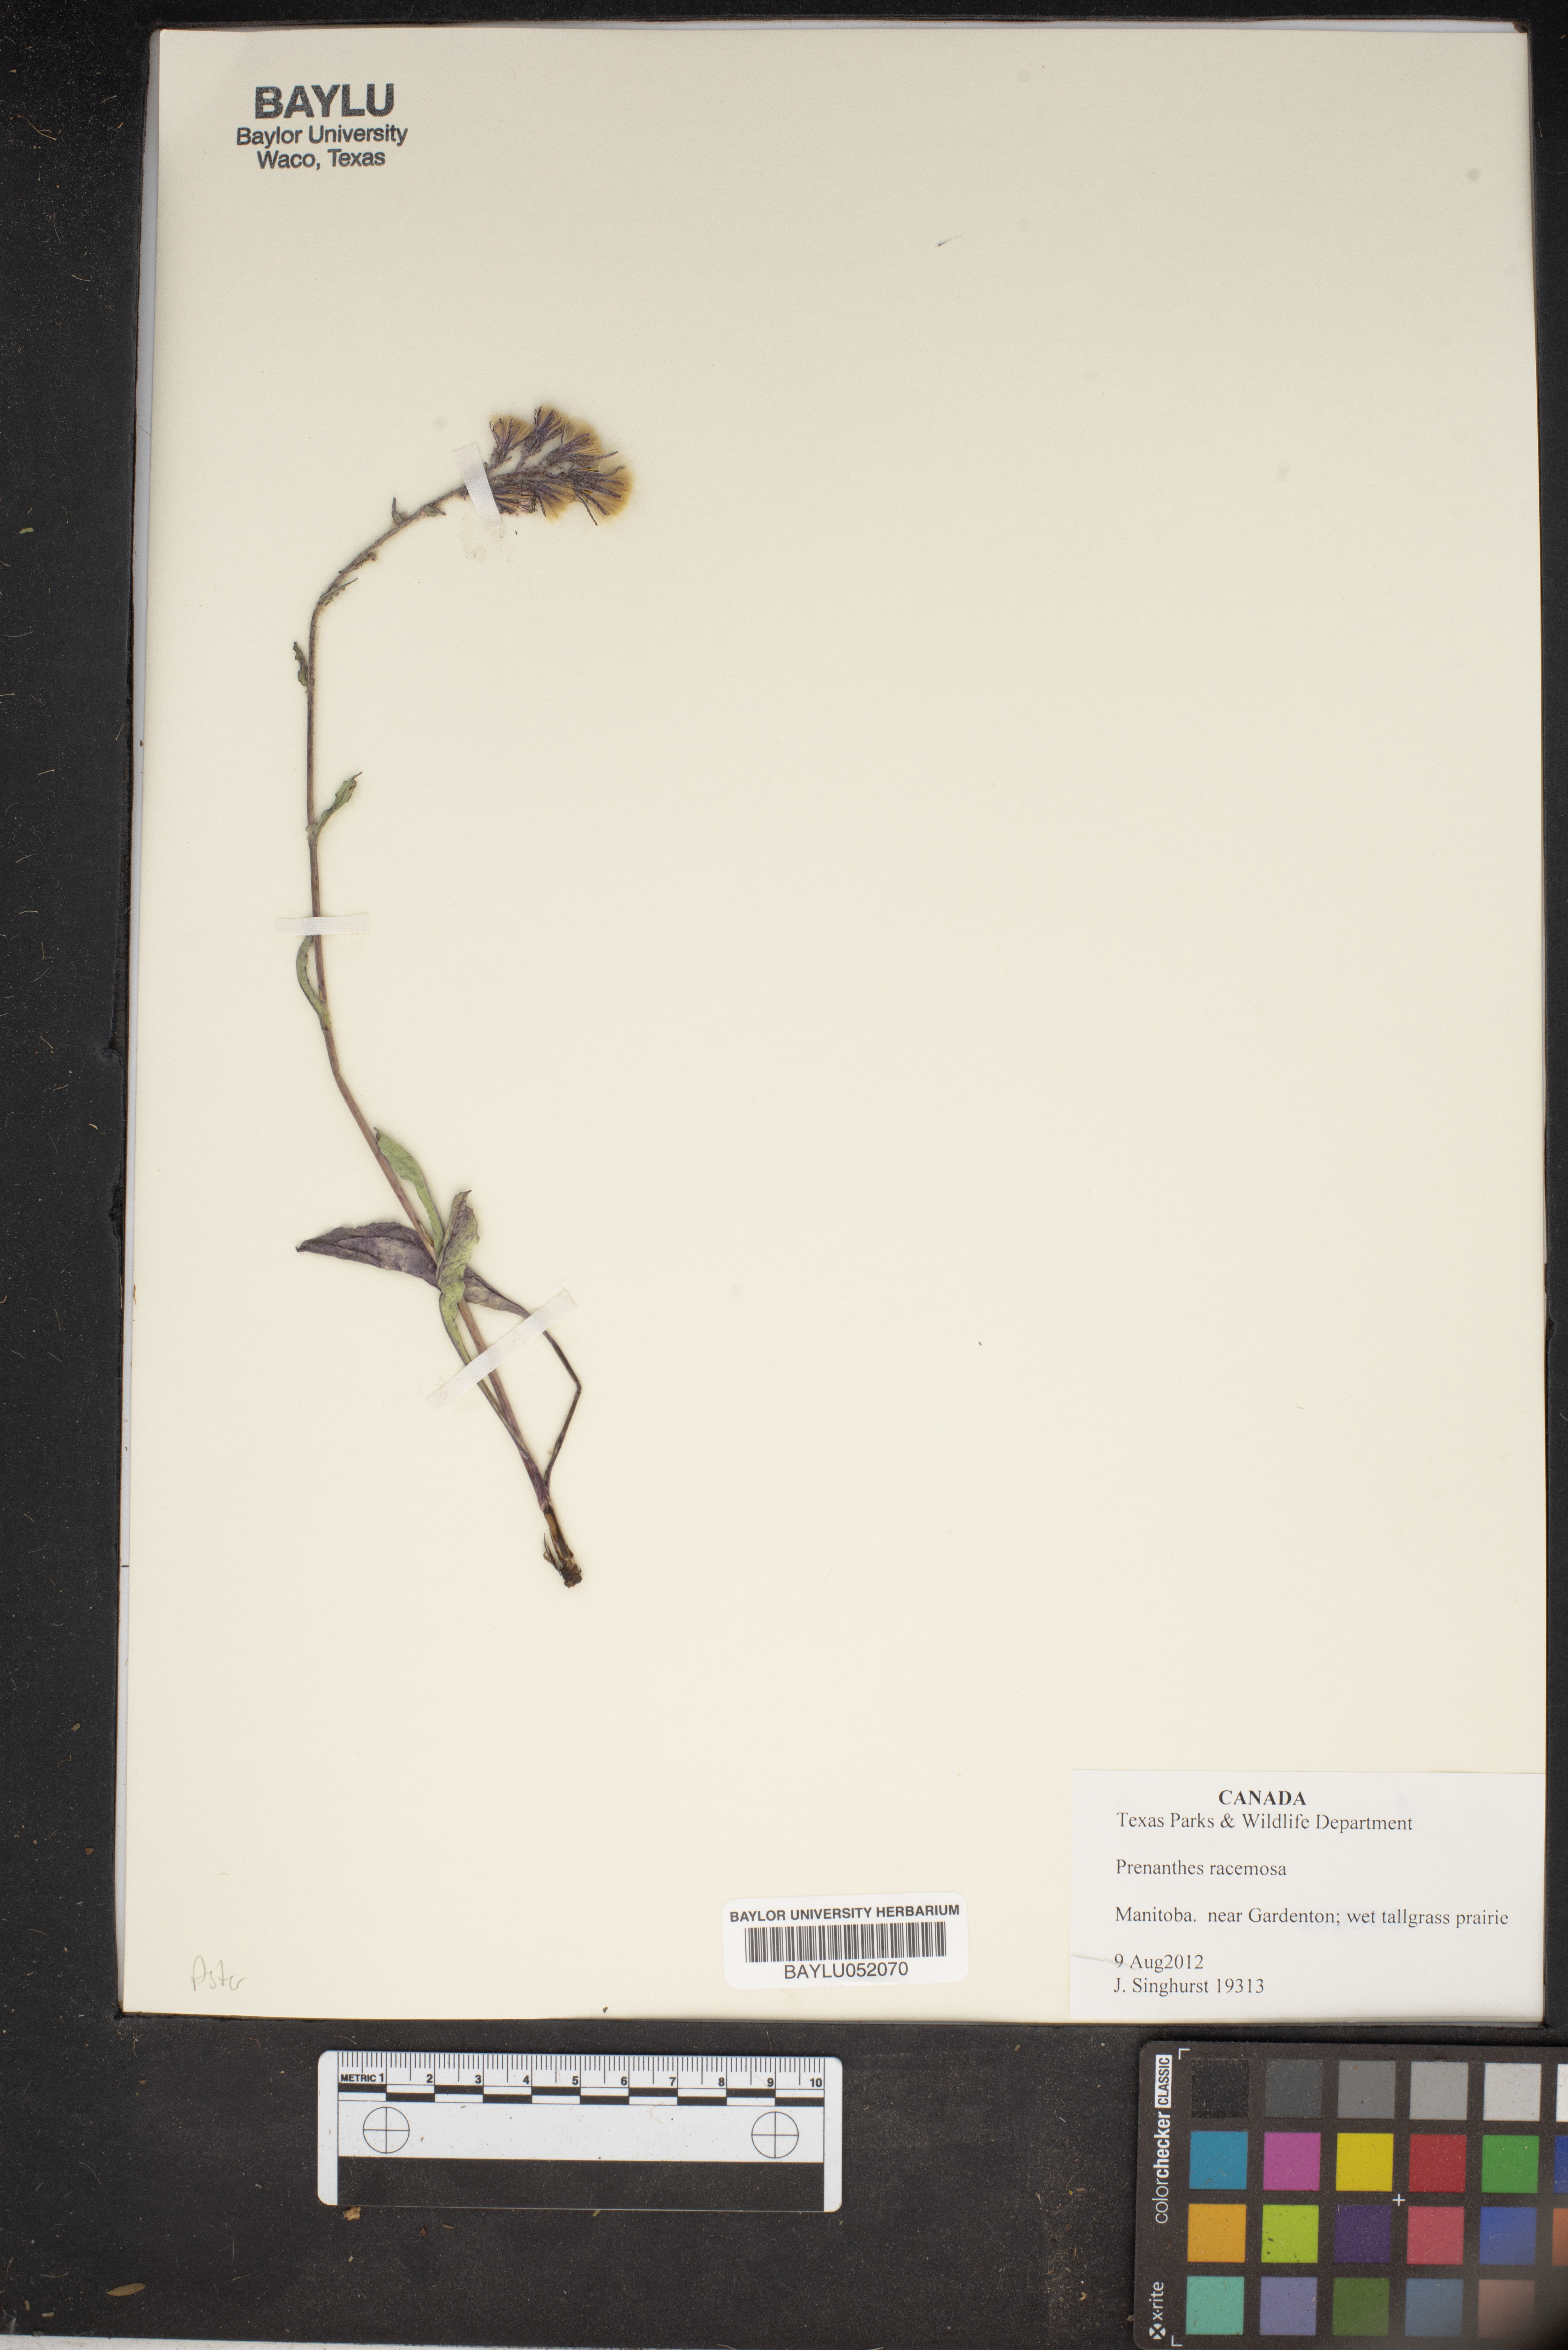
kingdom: Plantae
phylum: Tracheophyta
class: Magnoliopsida
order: Asterales
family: Asteraceae
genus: Nabalus
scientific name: Nabalus racemosus
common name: Glaucous white lettuce
